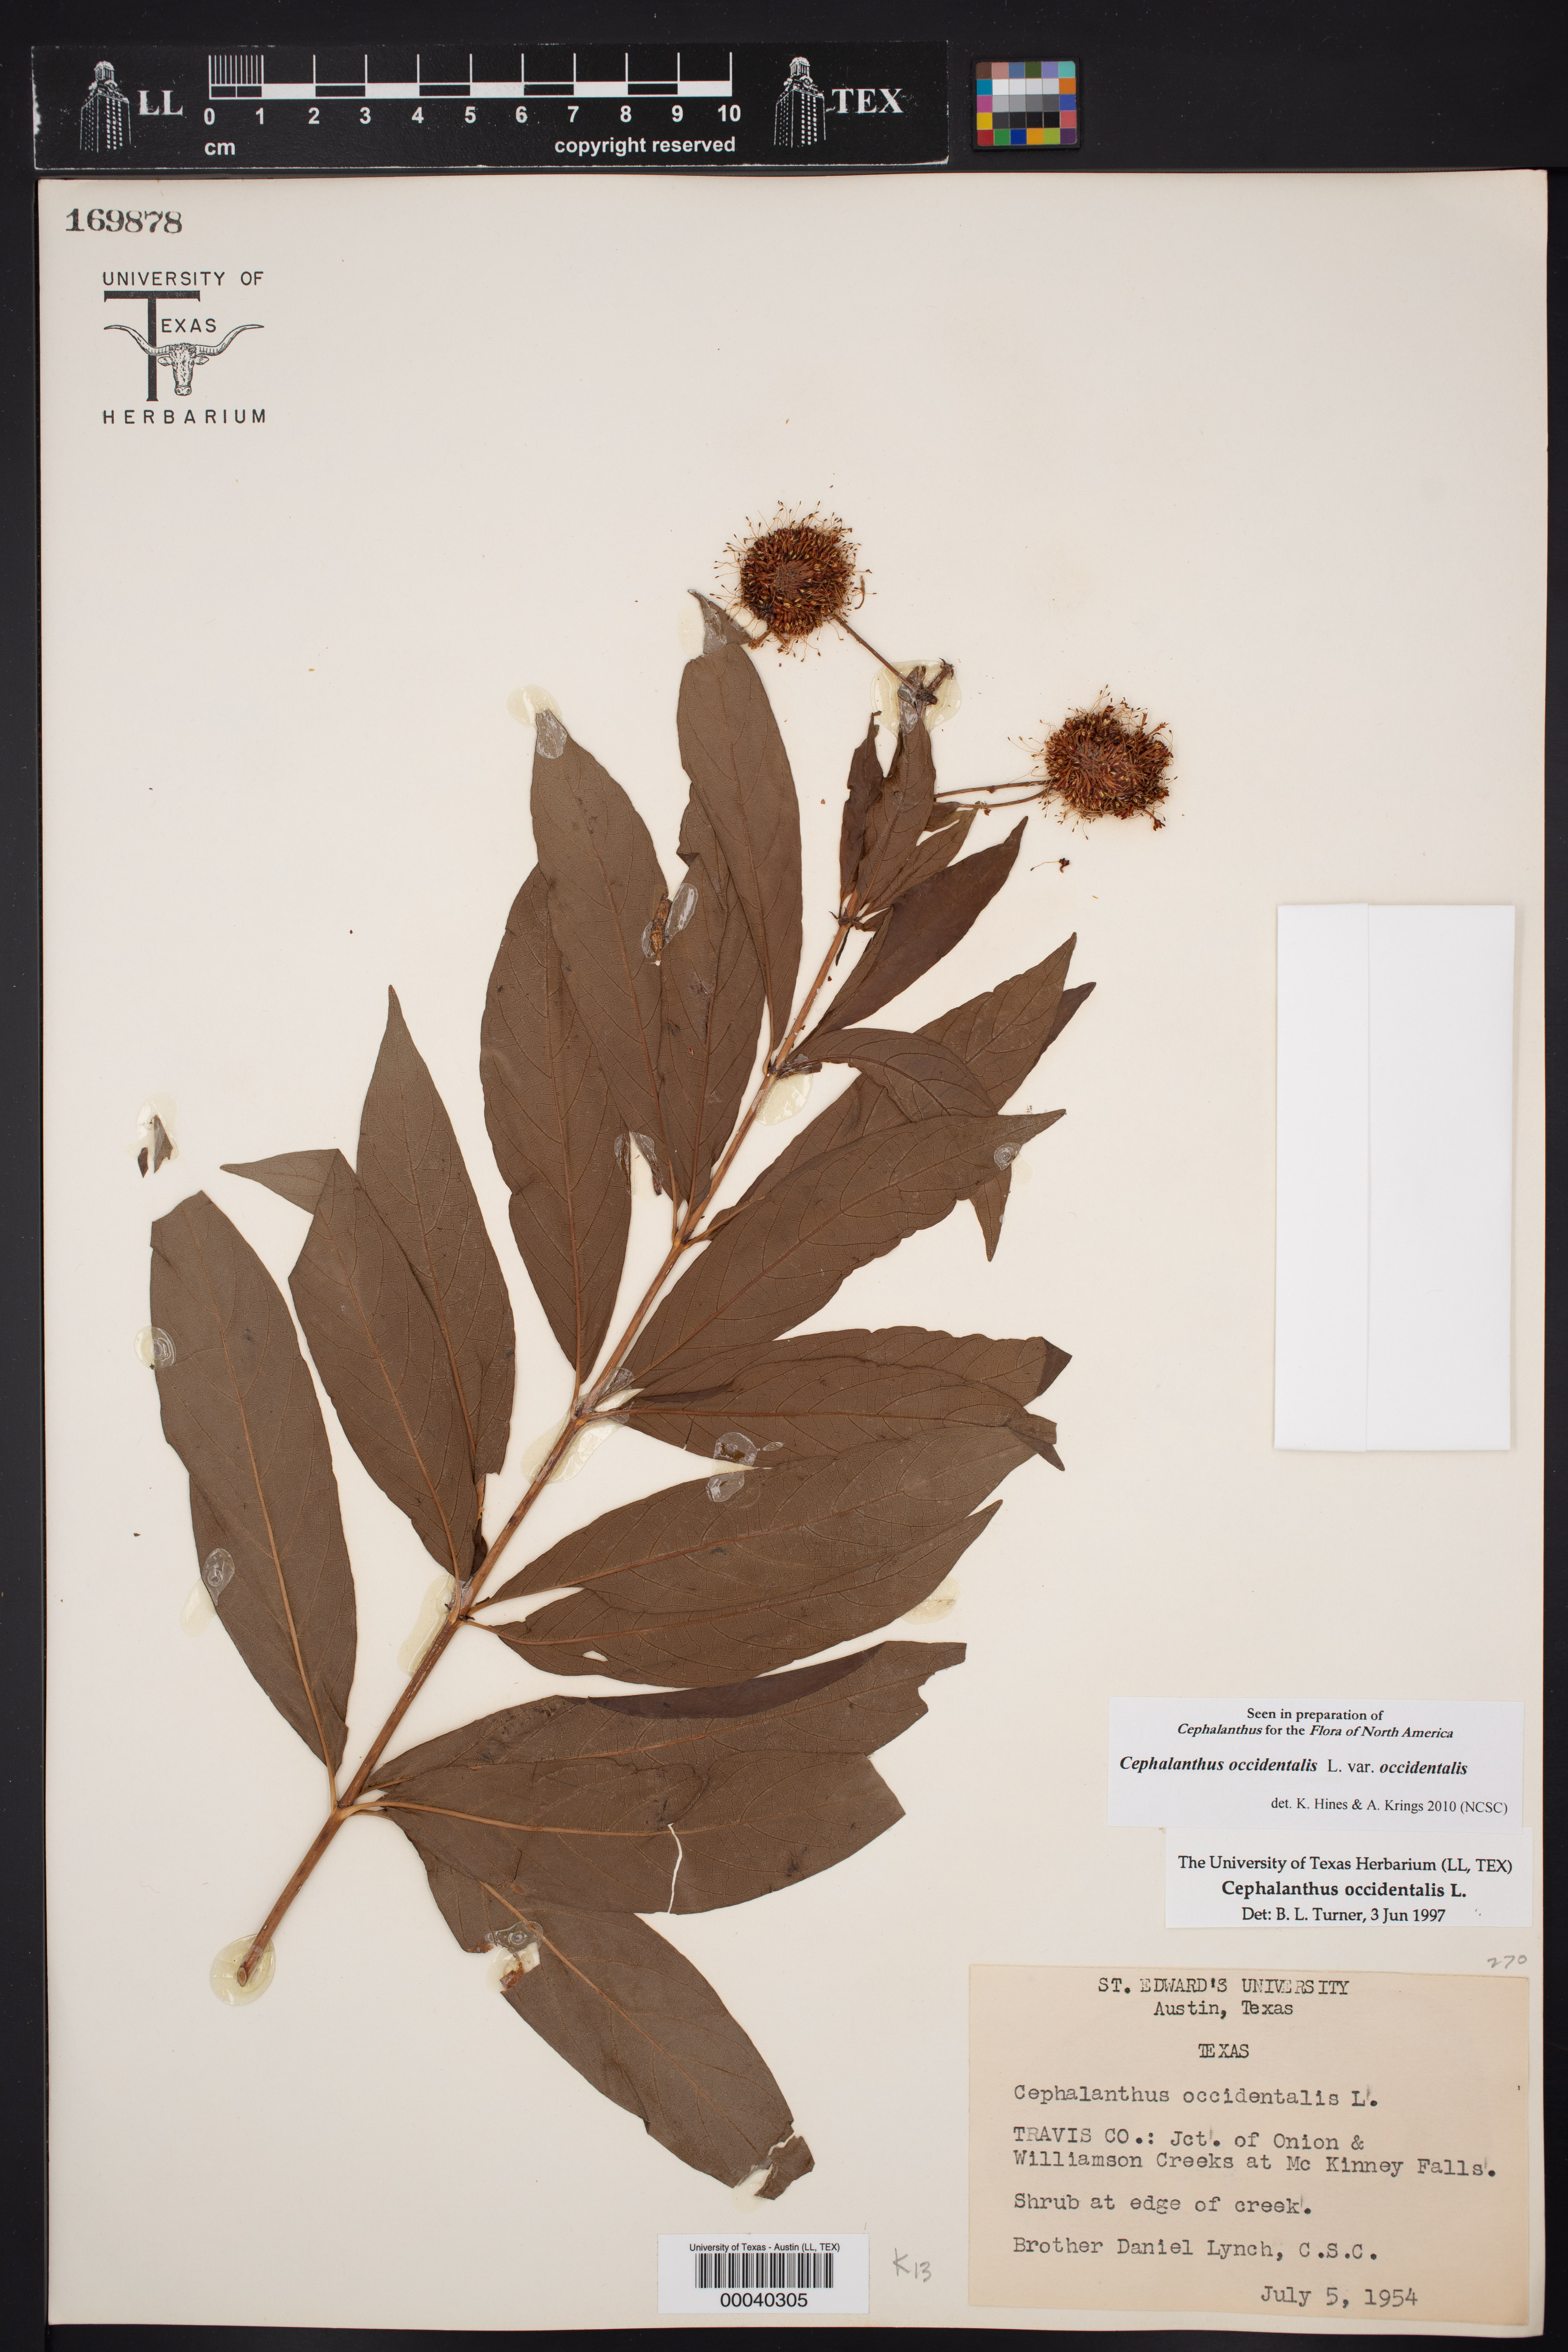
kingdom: Plantae
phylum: Tracheophyta
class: Magnoliopsida
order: Gentianales
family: Rubiaceae
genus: Cephalanthus
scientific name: Cephalanthus occidentalis
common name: Button-willow
